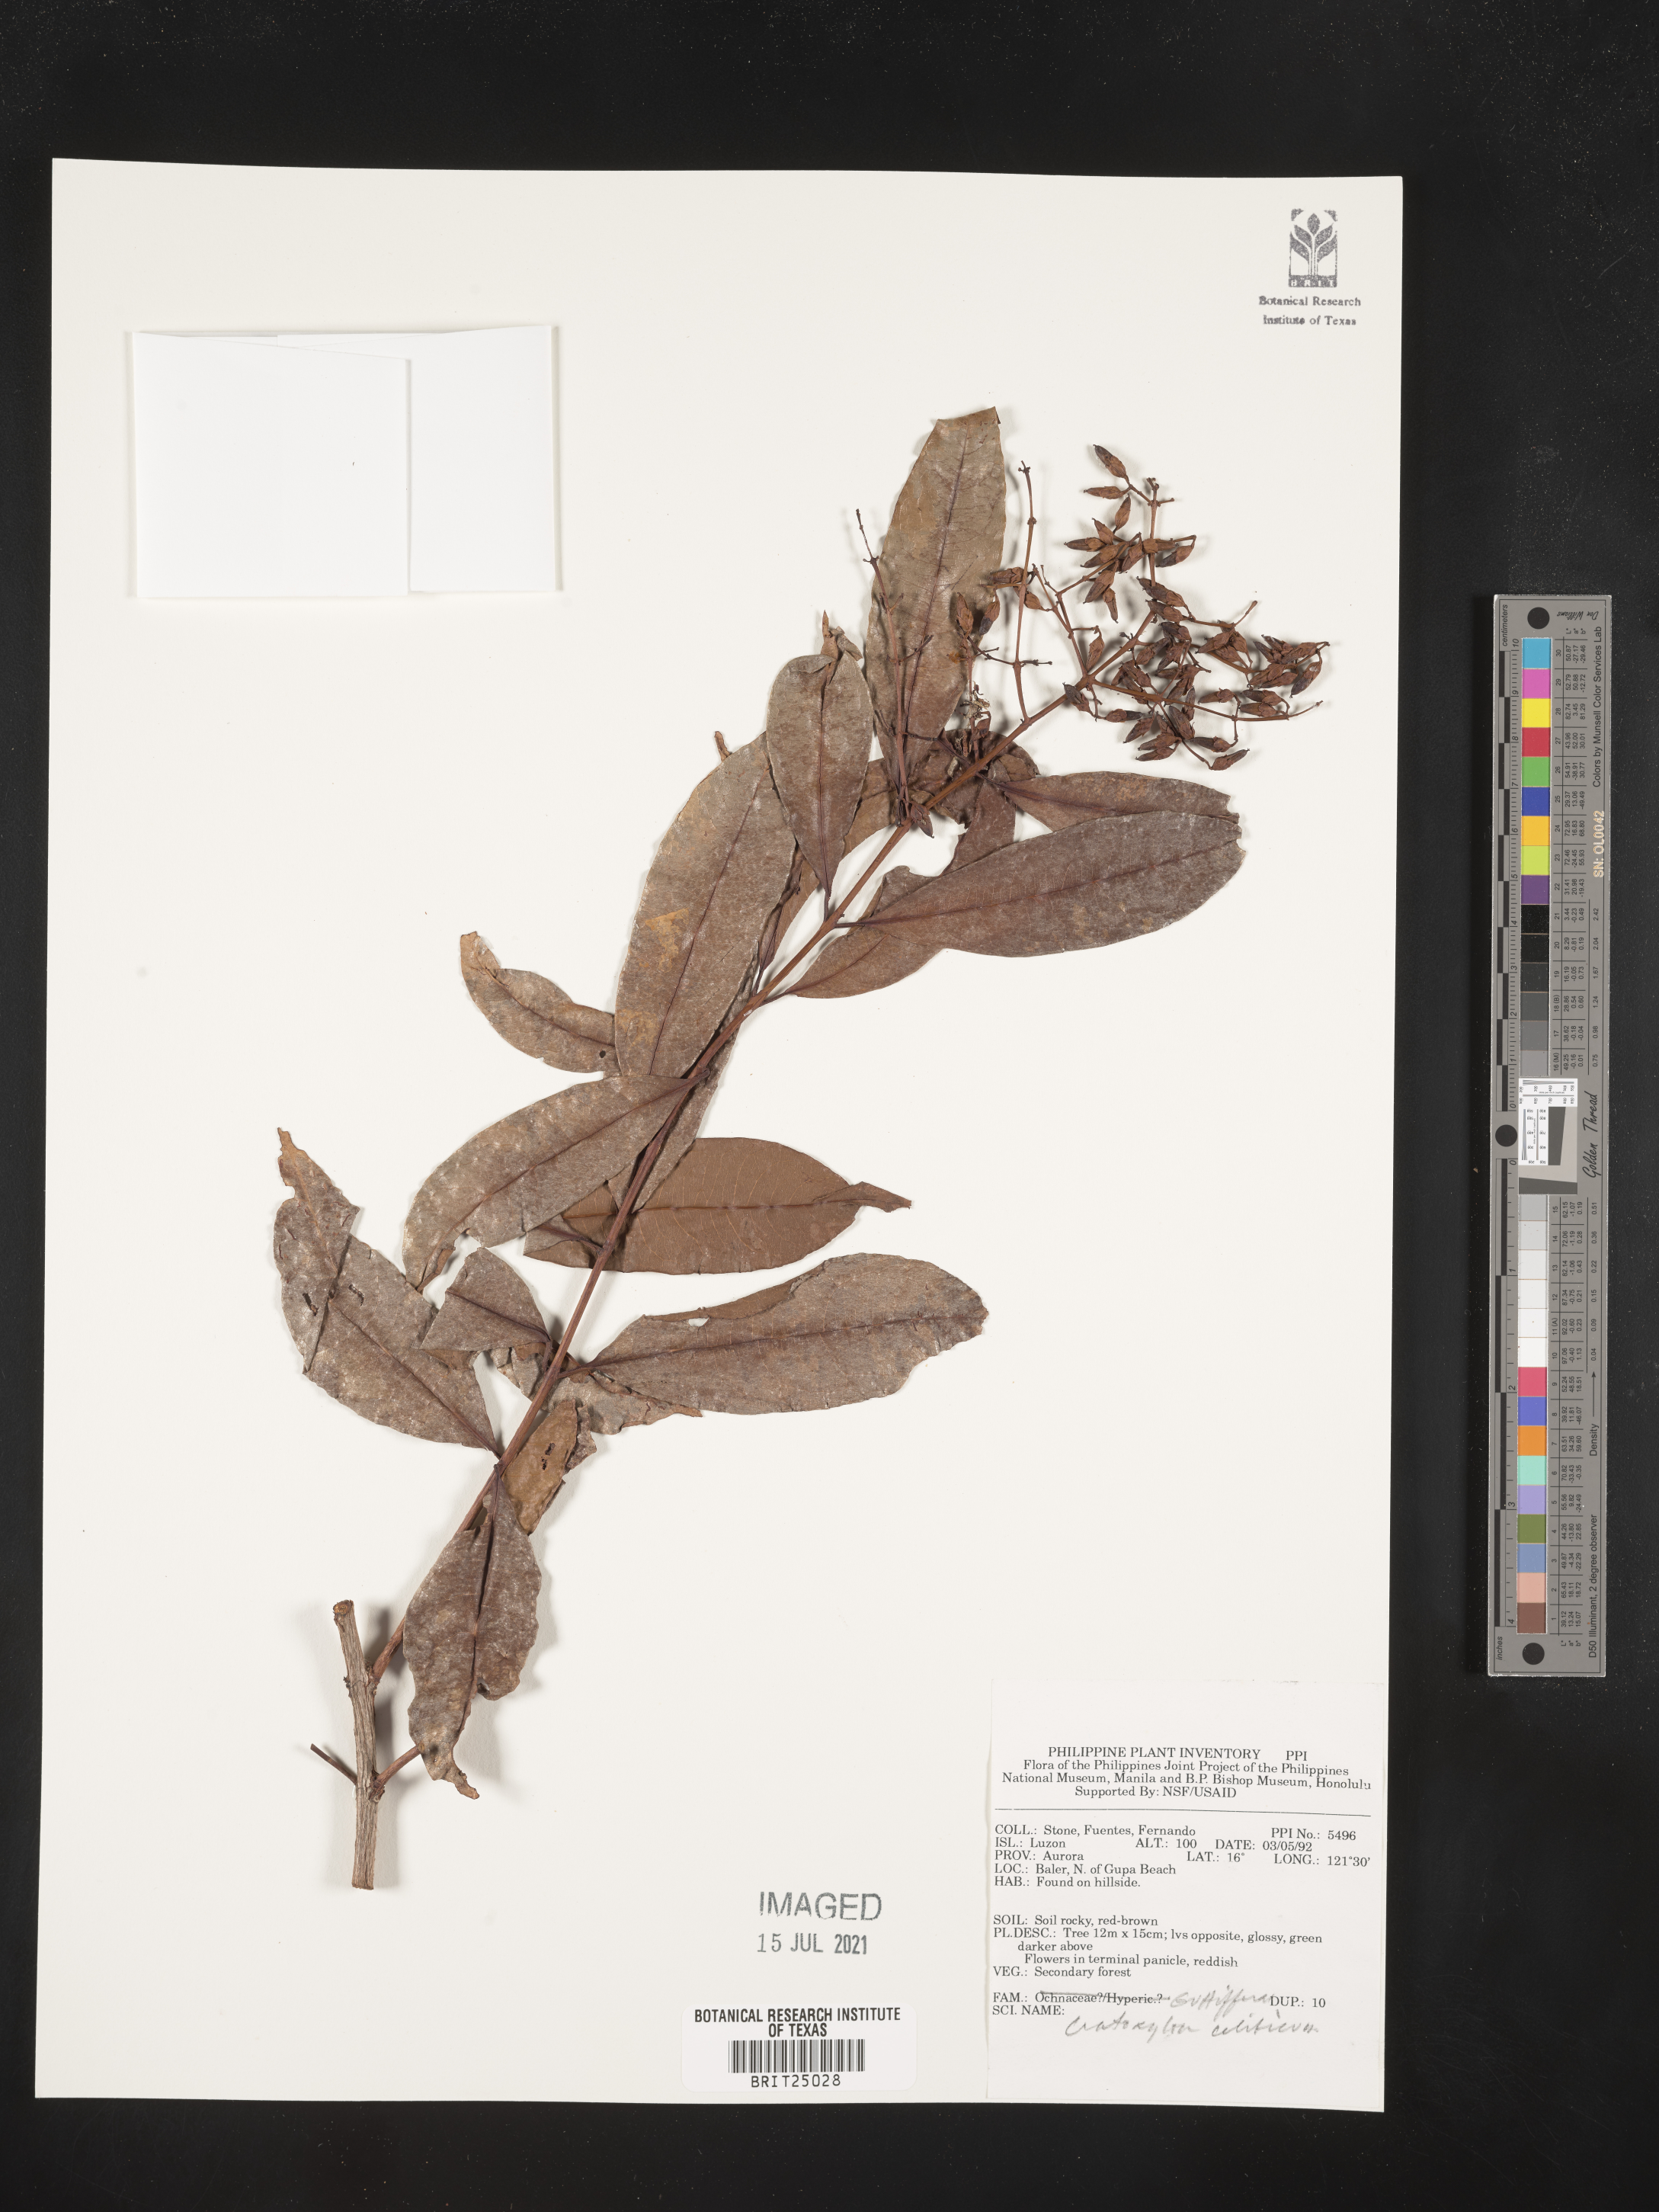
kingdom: Plantae
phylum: Tracheophyta
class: Magnoliopsida
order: Malpighiales
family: Hypericaceae
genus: Cratoxylum
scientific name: Cratoxylum sumatranum
